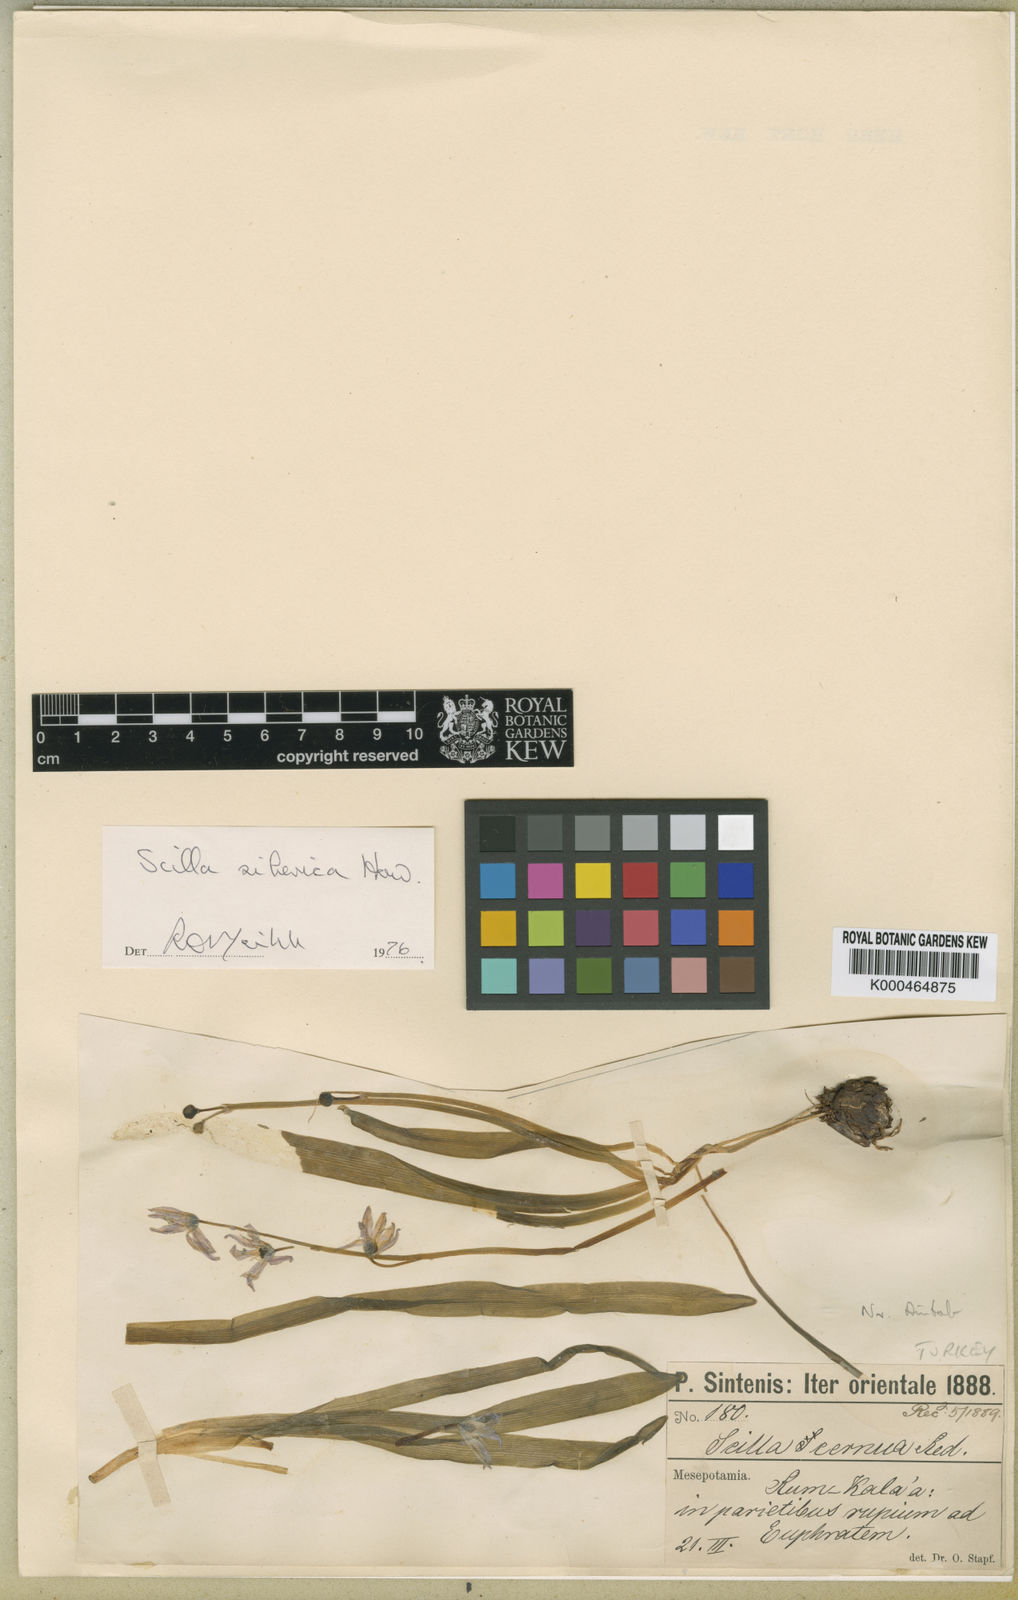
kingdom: Plantae
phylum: Tracheophyta
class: Liliopsida
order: Asparagales
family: Asparagaceae
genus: Scilla
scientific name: Scilla
